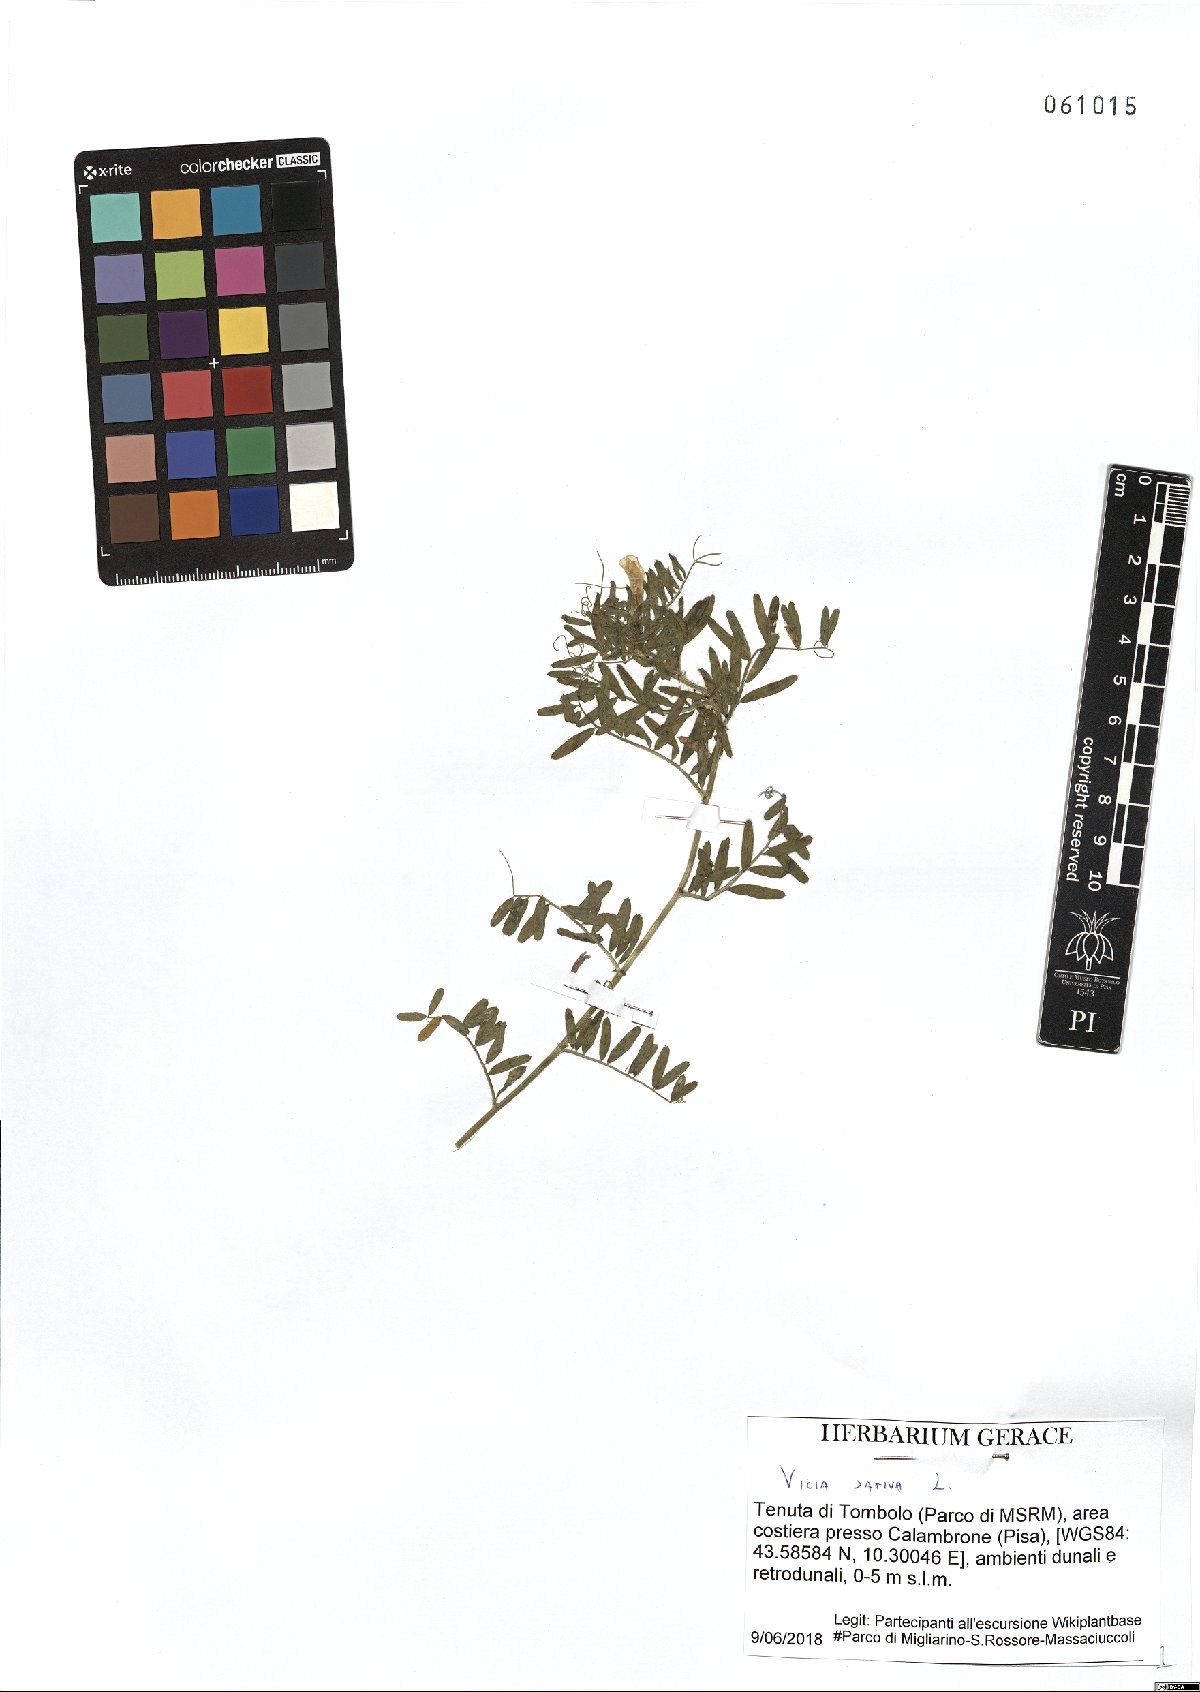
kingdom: Plantae
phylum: Tracheophyta
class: Magnoliopsida
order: Fabales
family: Fabaceae
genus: Vicia
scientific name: Vicia sativa
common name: Garden vetch
